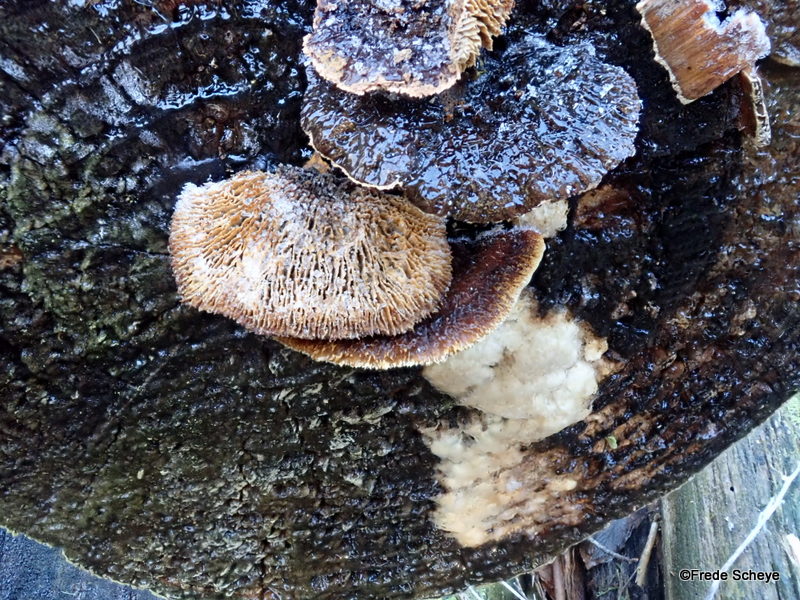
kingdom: Fungi
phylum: Basidiomycota
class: Agaricomycetes
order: Gloeophyllales
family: Gloeophyllaceae
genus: Gloeophyllum
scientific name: Gloeophyllum sepiarium
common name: fyrre-korkhat
